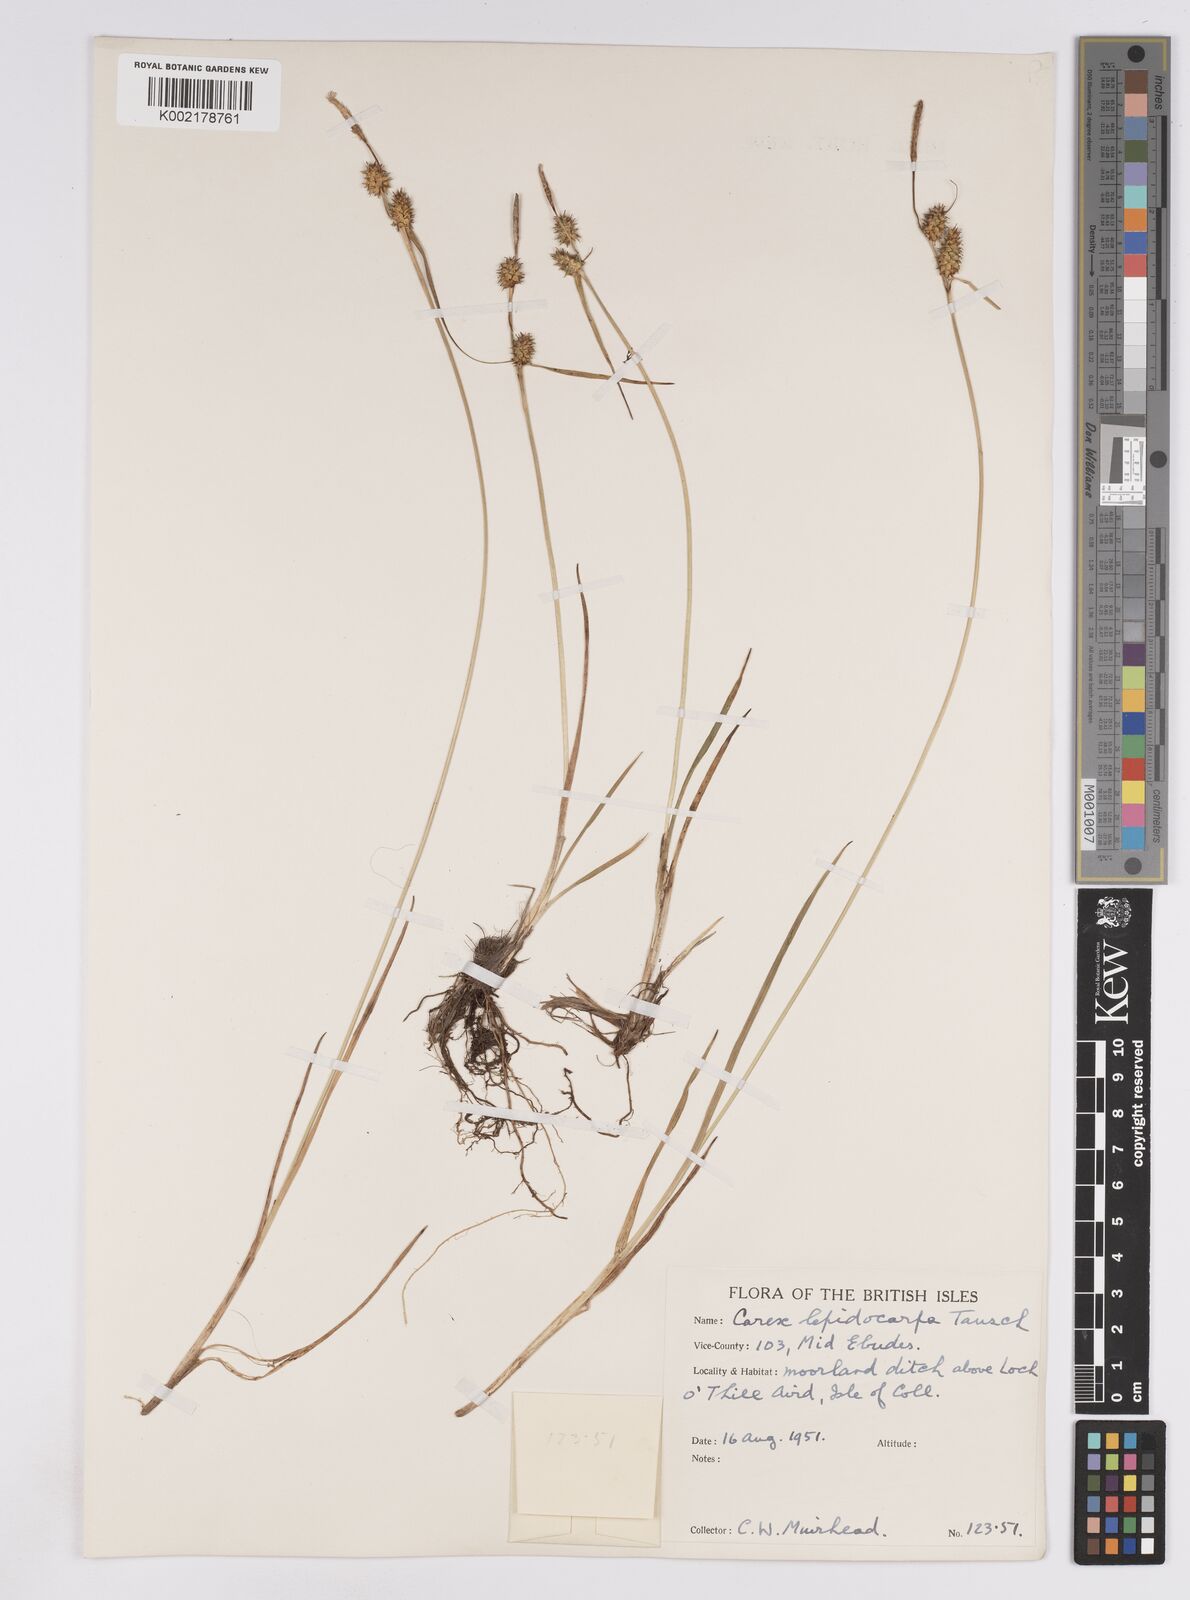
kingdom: Plantae
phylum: Tracheophyta
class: Liliopsida
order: Poales
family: Cyperaceae
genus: Carex
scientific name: Carex lepidocarpa
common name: Long-stalked yellow-sedge
